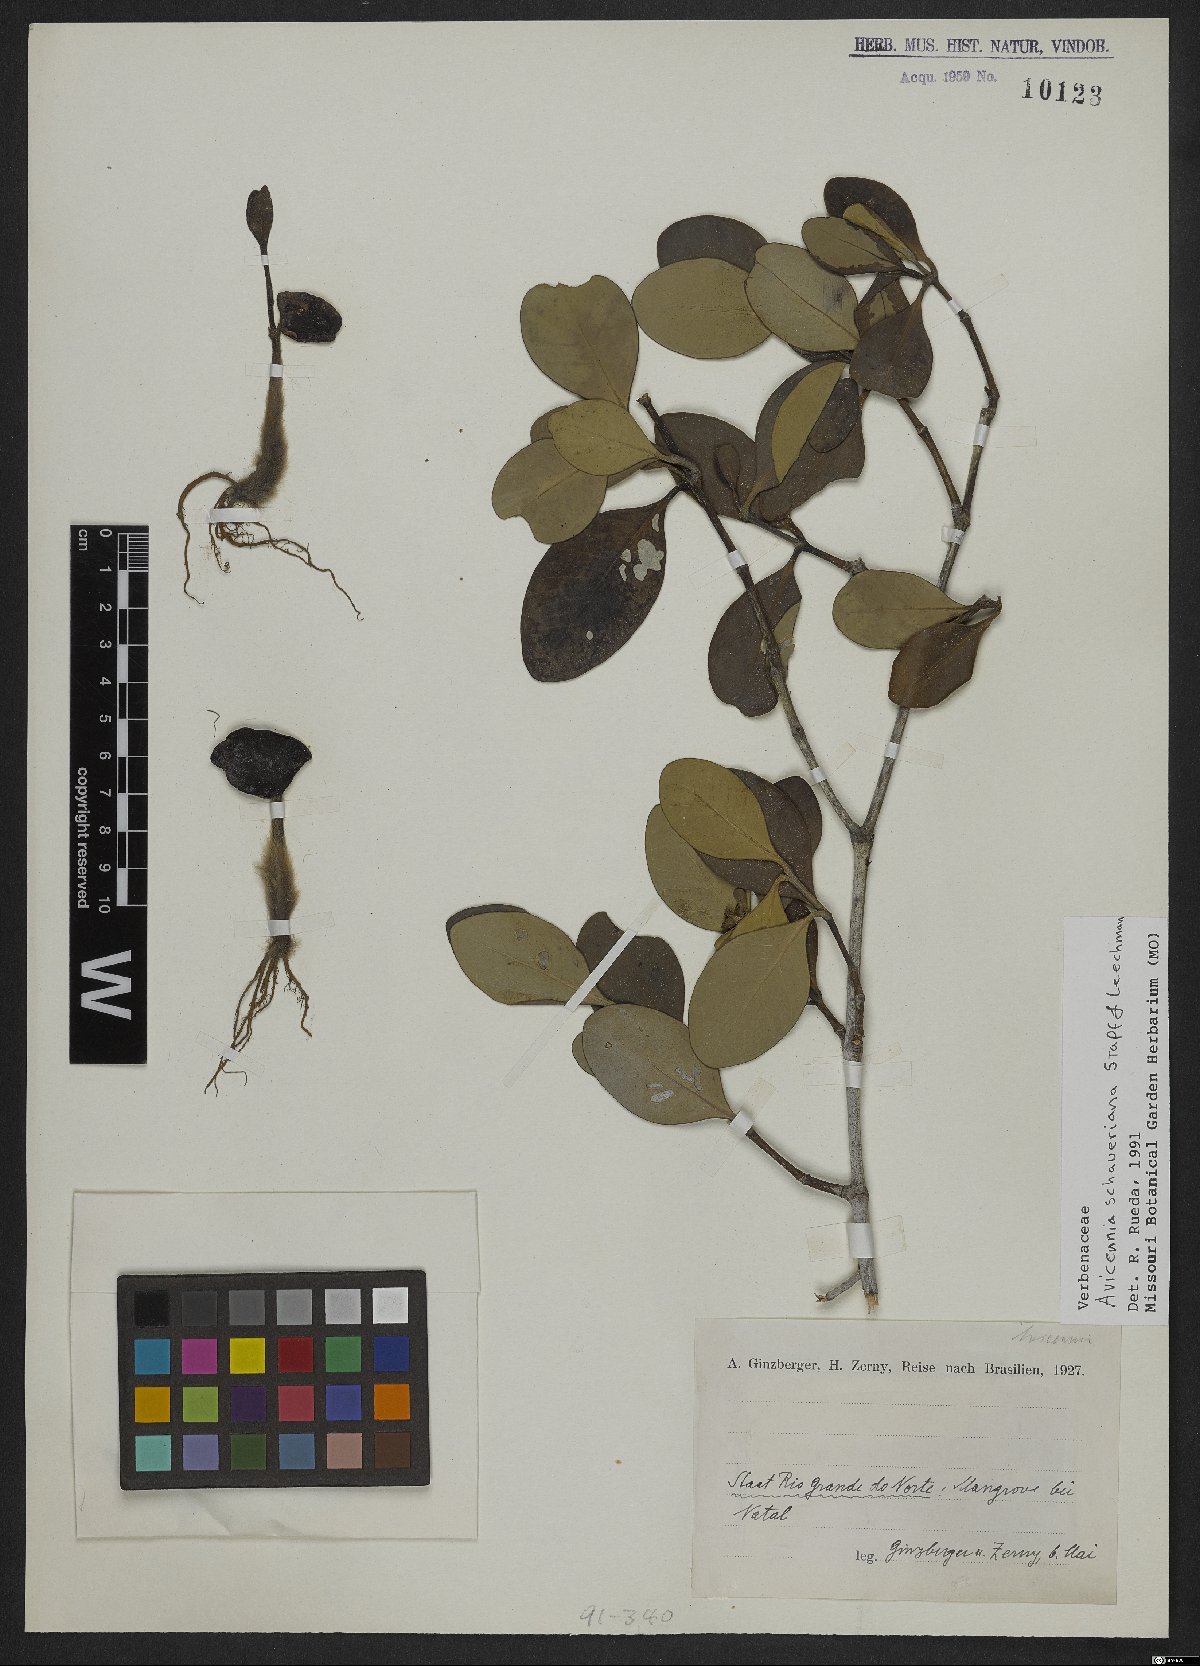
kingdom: Plantae
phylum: Tracheophyta
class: Magnoliopsida
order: Lamiales
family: Acanthaceae
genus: Avicennia
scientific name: Avicennia schaueriana
